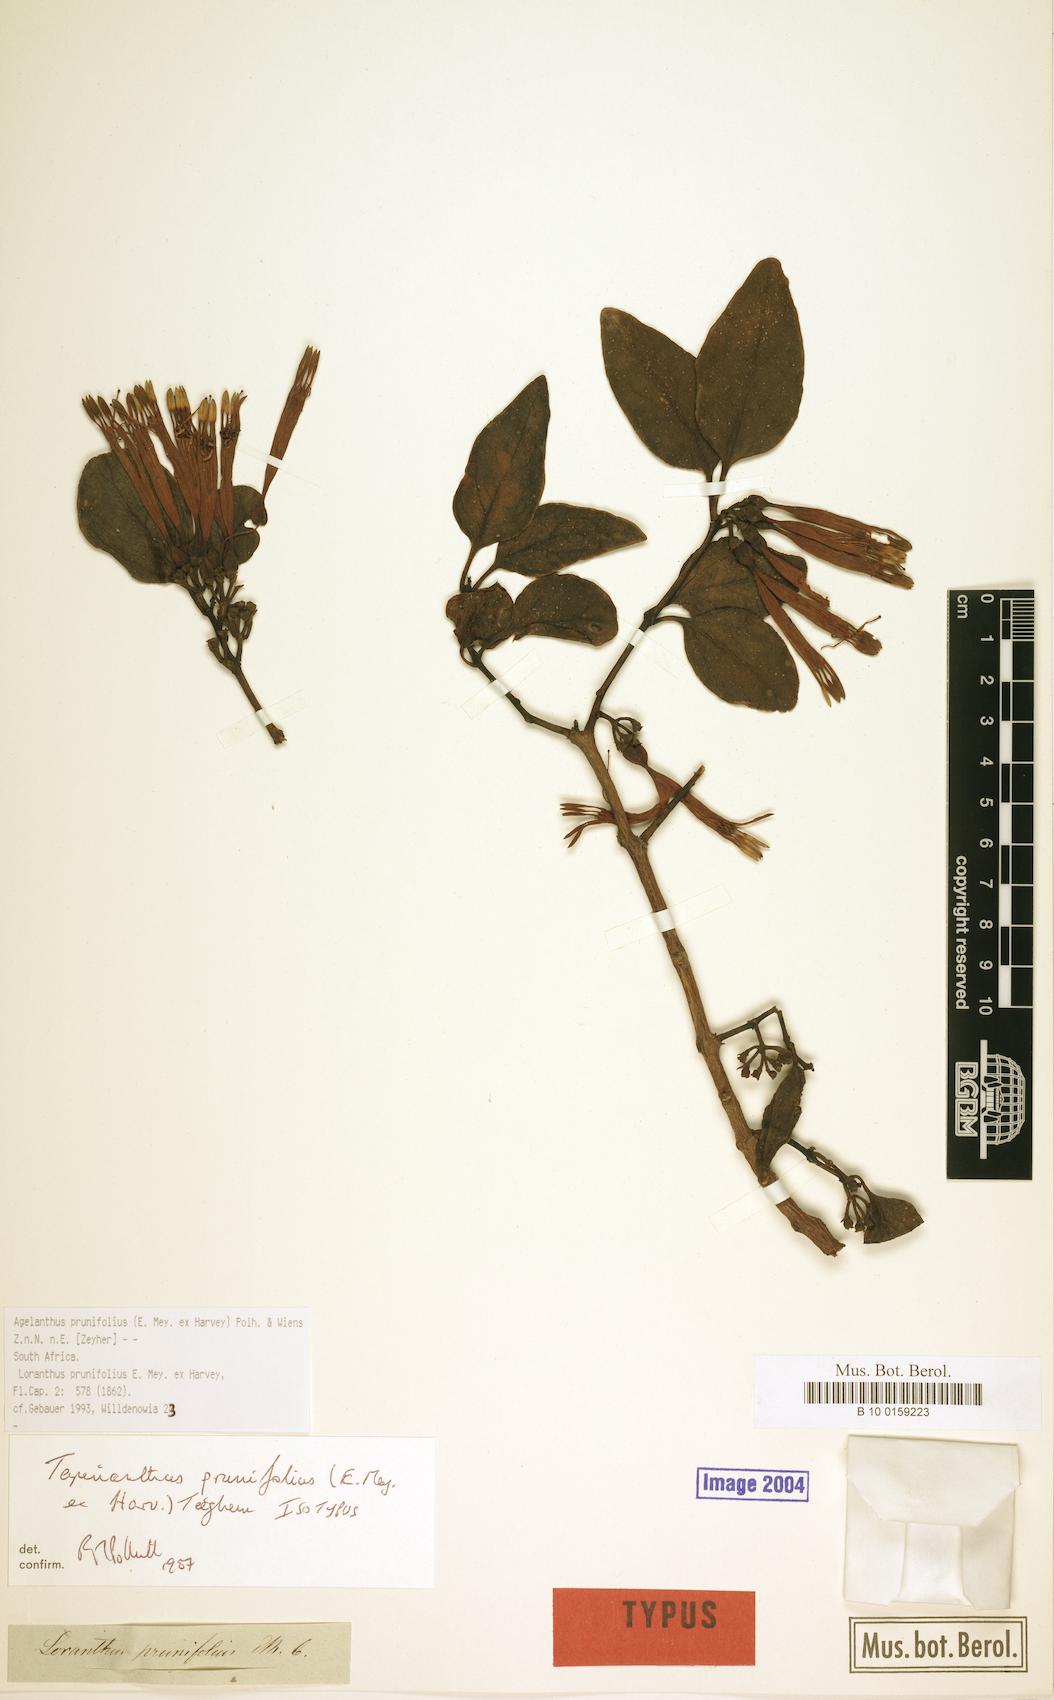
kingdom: Plantae
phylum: Tracheophyta
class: Magnoliopsida
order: Santalales
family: Loranthaceae
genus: Agelanthus
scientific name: Agelanthus prunifolius
